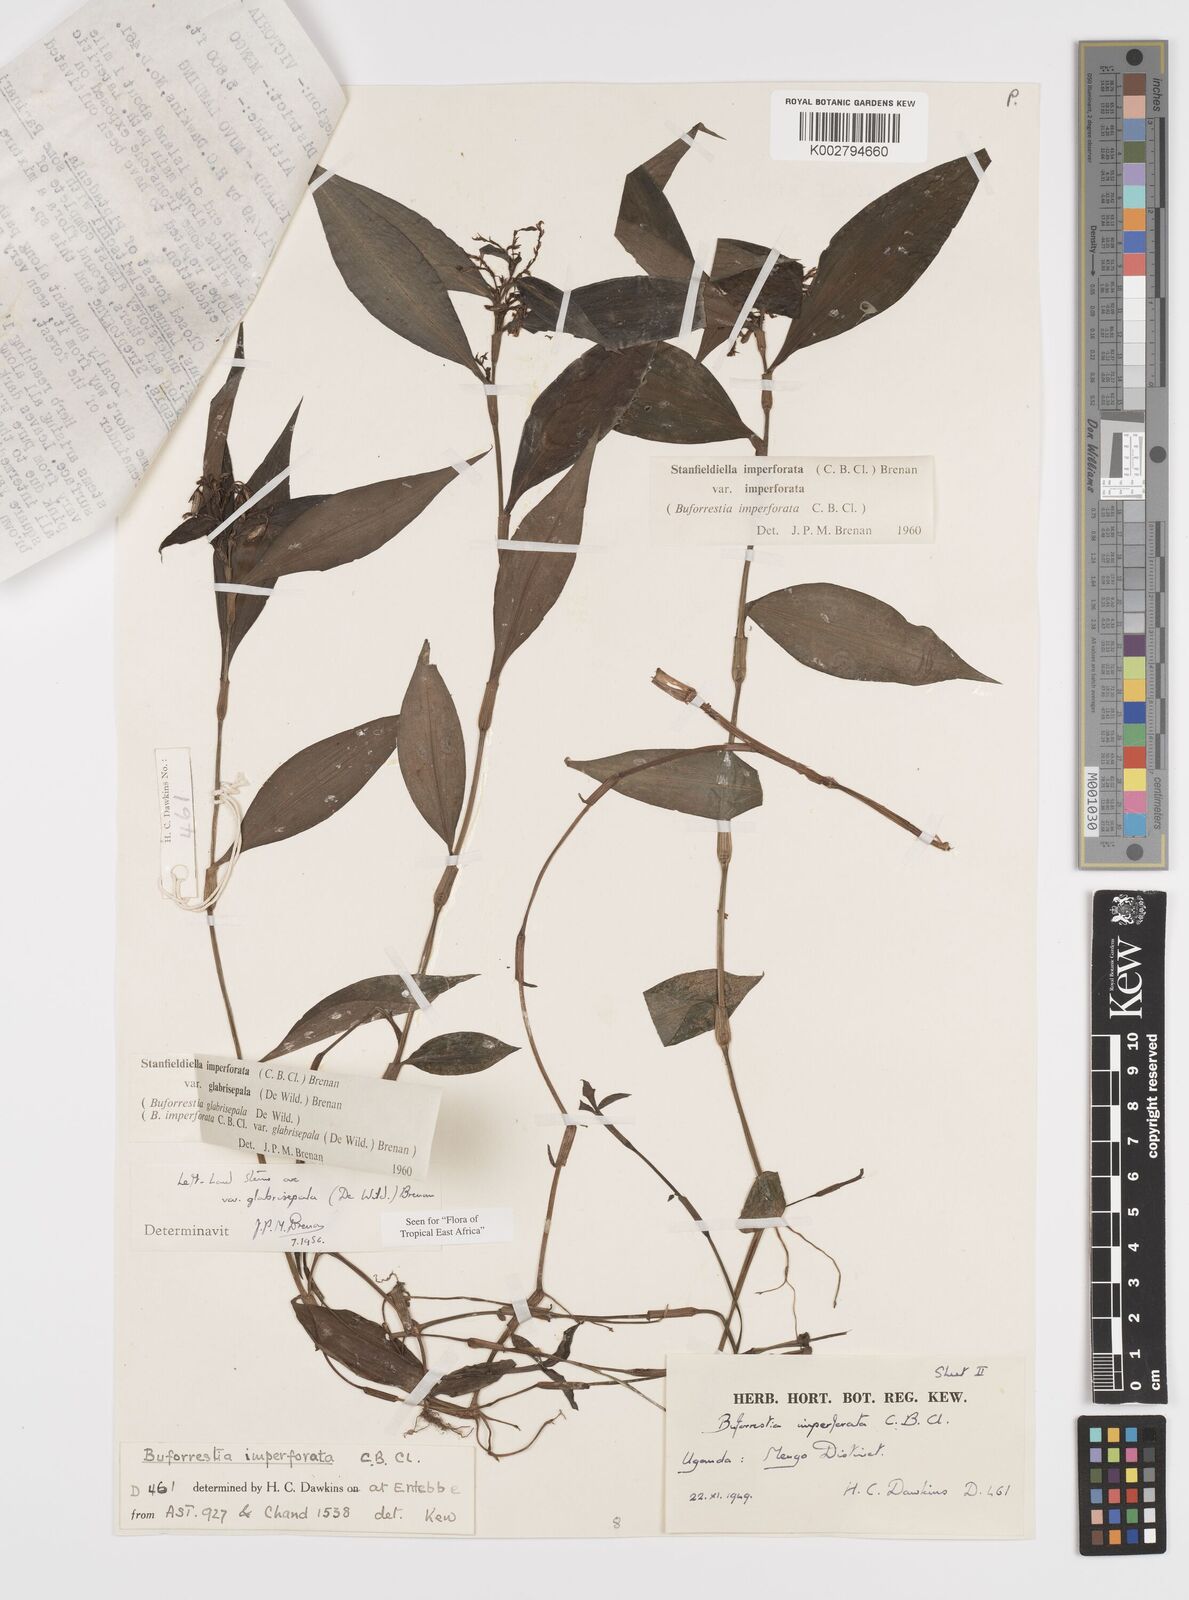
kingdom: Plantae
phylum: Tracheophyta
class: Liliopsida
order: Commelinales
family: Commelinaceae
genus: Stanfieldiella
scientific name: Stanfieldiella imperforata
